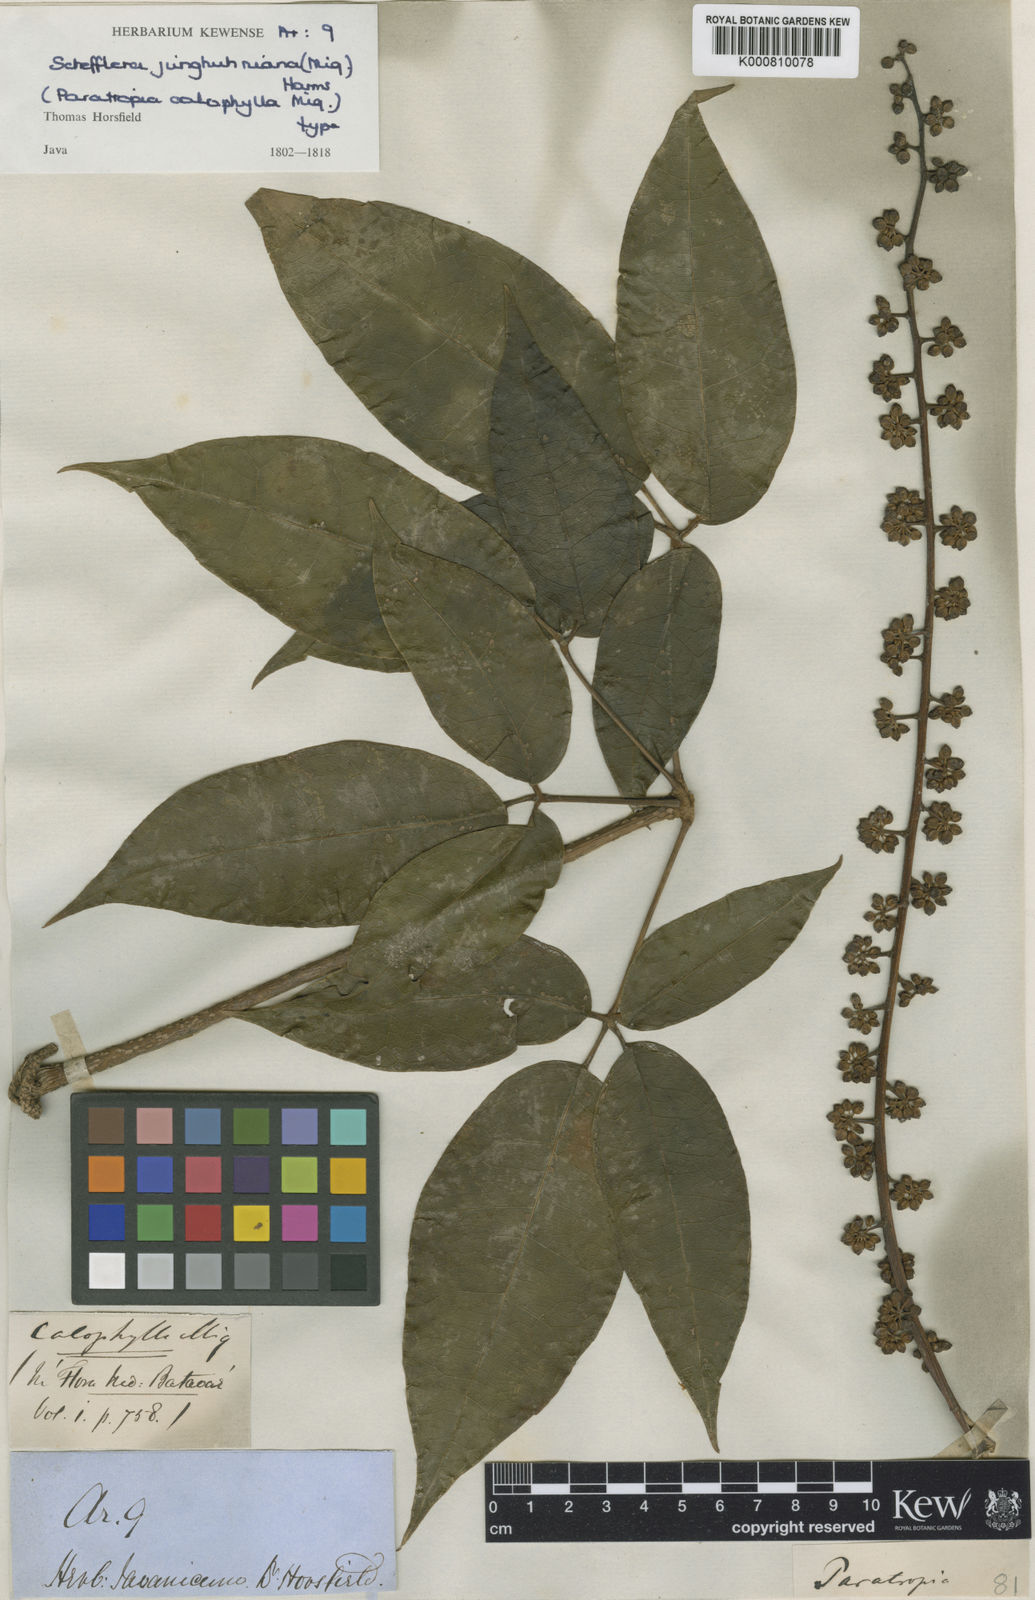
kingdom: Plantae
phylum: Tracheophyta
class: Magnoliopsida
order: Apiales
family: Araliaceae
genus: Heptapleurum
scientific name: Heptapleurum junghuhnianum
